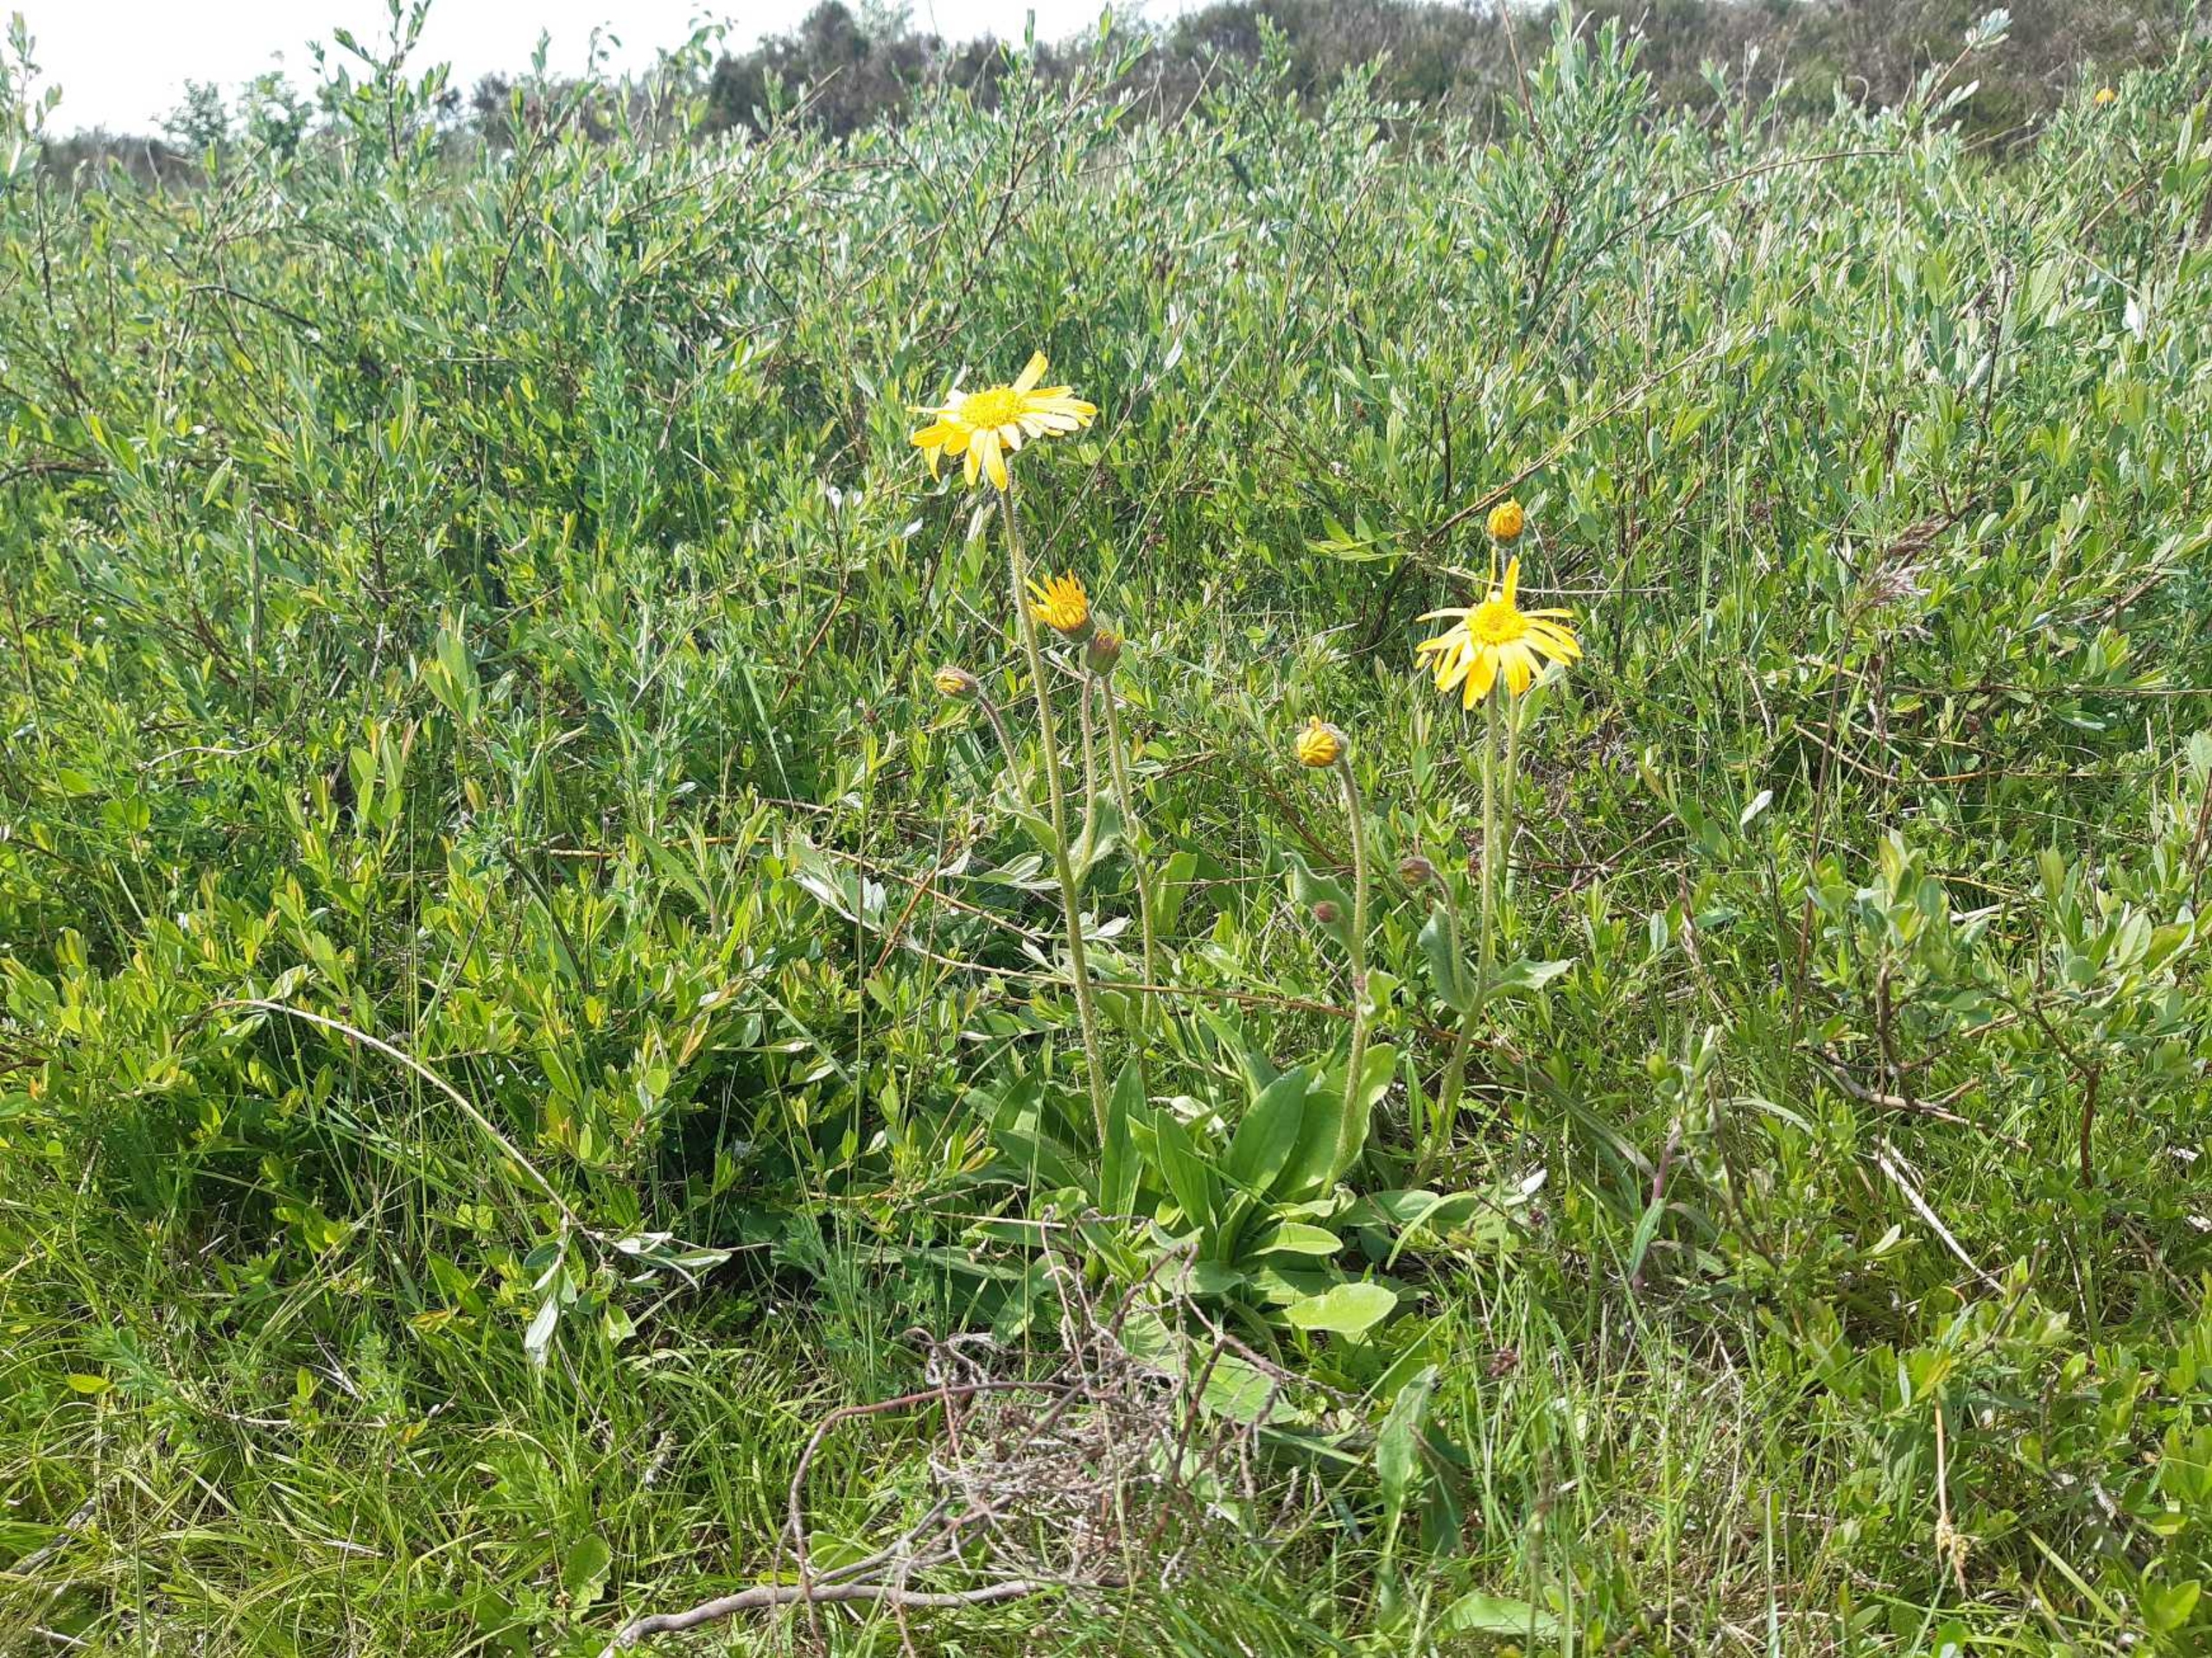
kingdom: Plantae
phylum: Tracheophyta
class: Magnoliopsida
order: Asterales
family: Asteraceae
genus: Arnica
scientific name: Arnica montana
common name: Guldblomme
